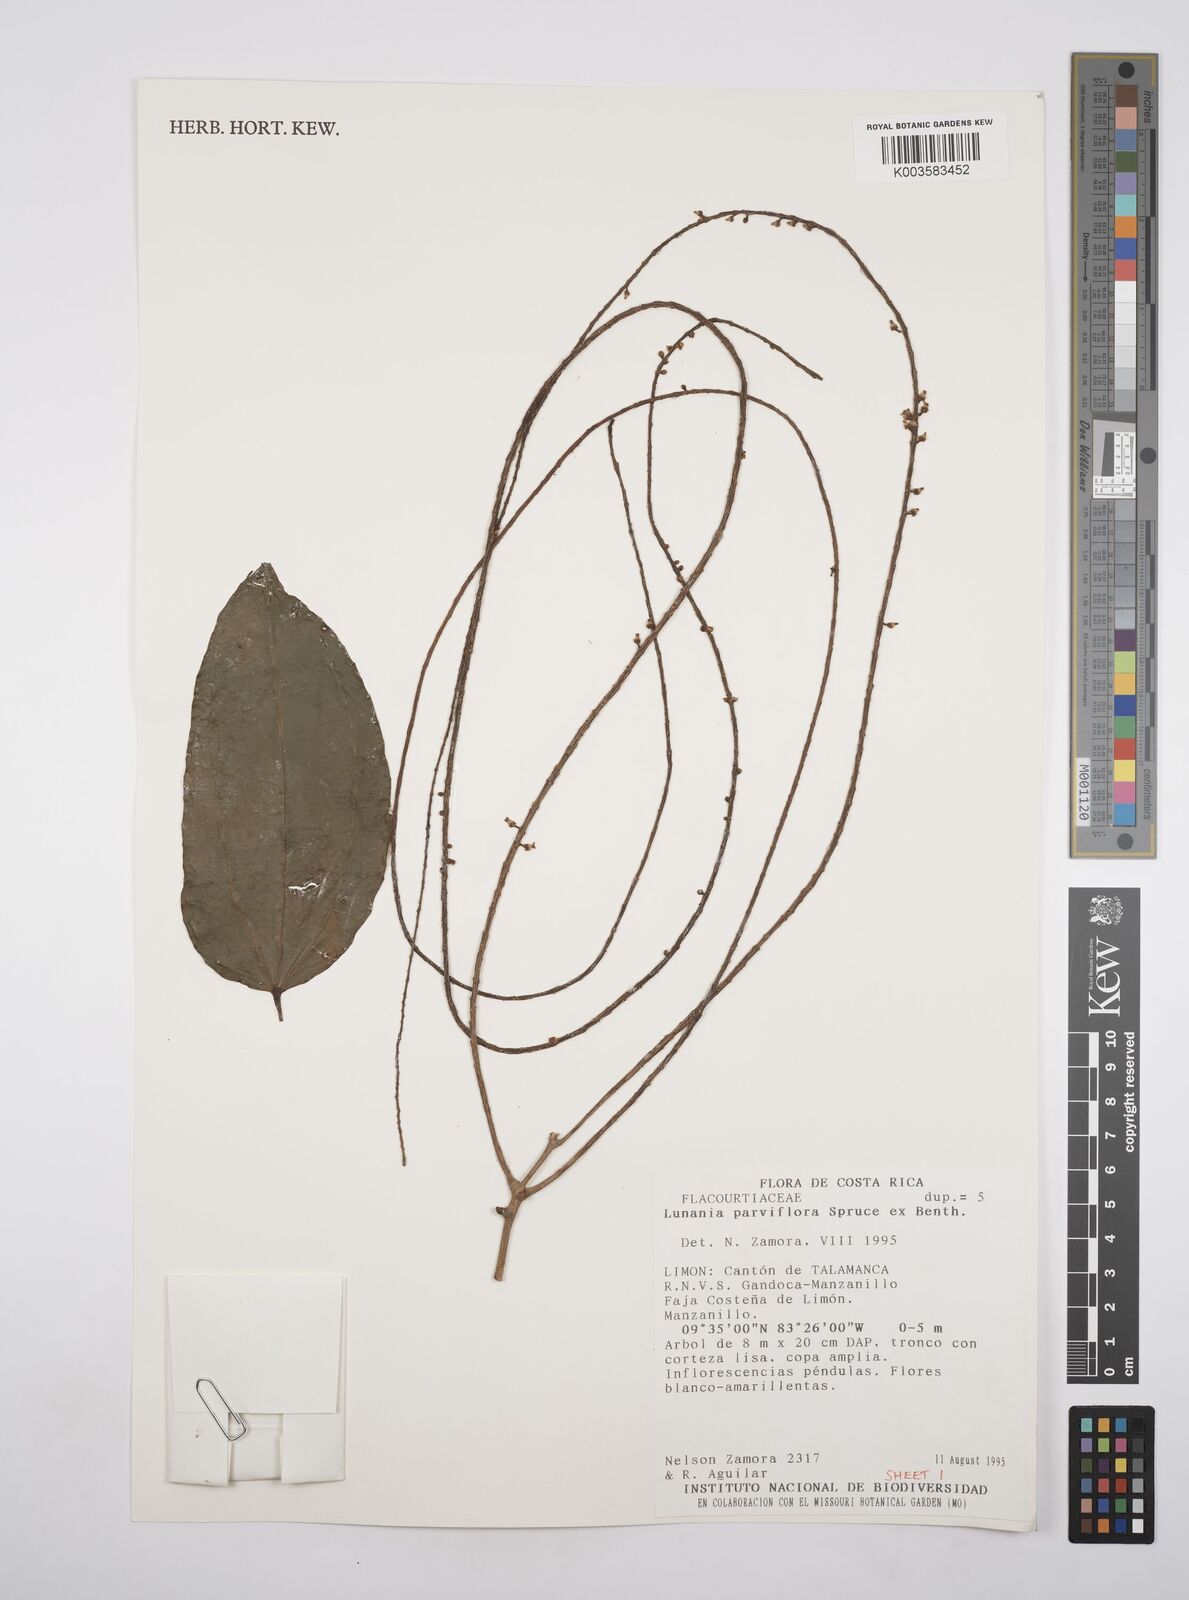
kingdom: Plantae
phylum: Tracheophyta
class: Magnoliopsida
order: Malpighiales
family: Salicaceae
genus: Lunania
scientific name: Lunania parviflora
